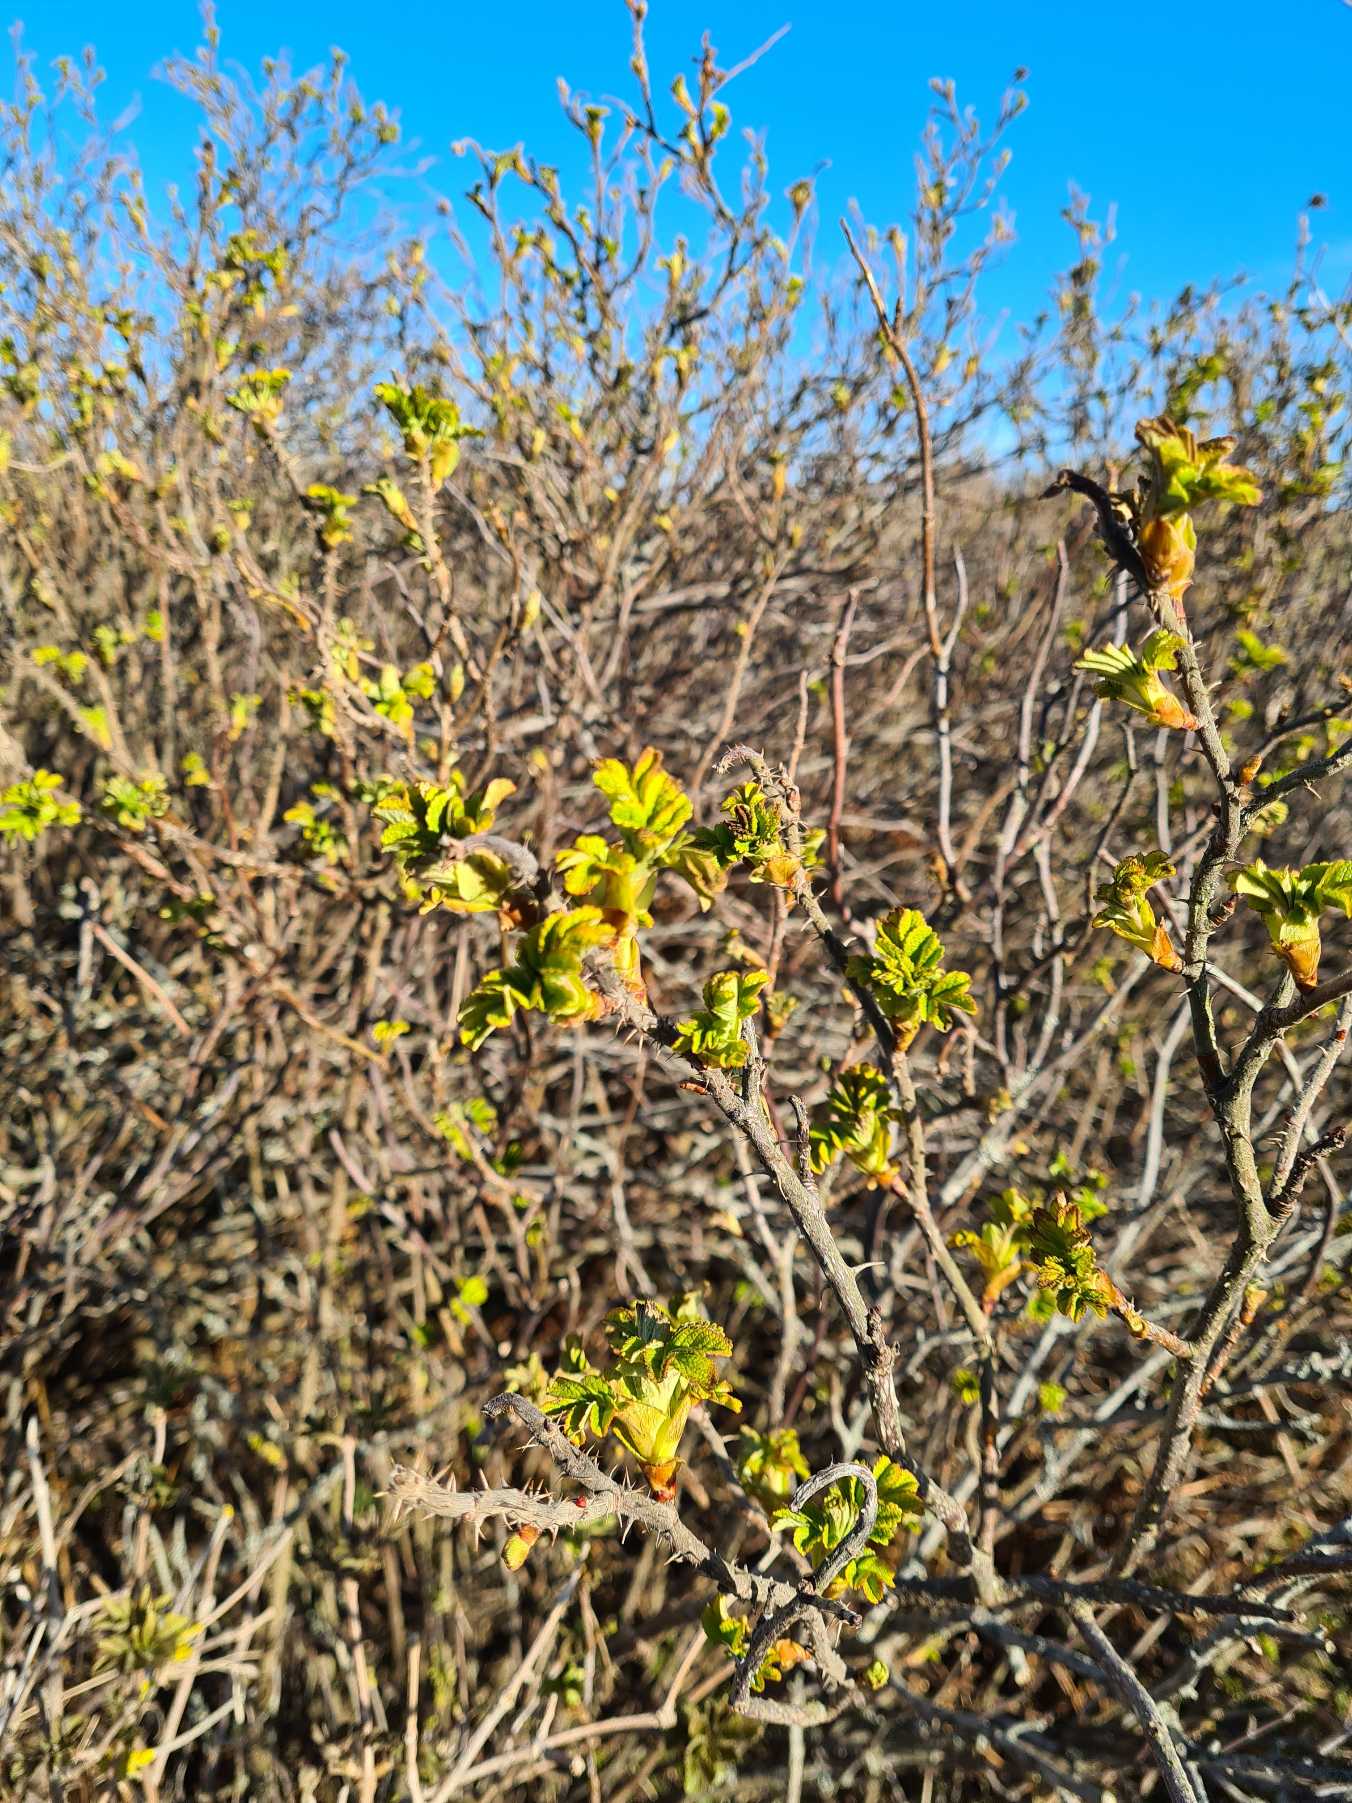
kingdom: Plantae
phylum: Tracheophyta
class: Magnoliopsida
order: Rosales
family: Rosaceae
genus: Rosa
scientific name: Rosa rugosa
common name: Rynket rose
